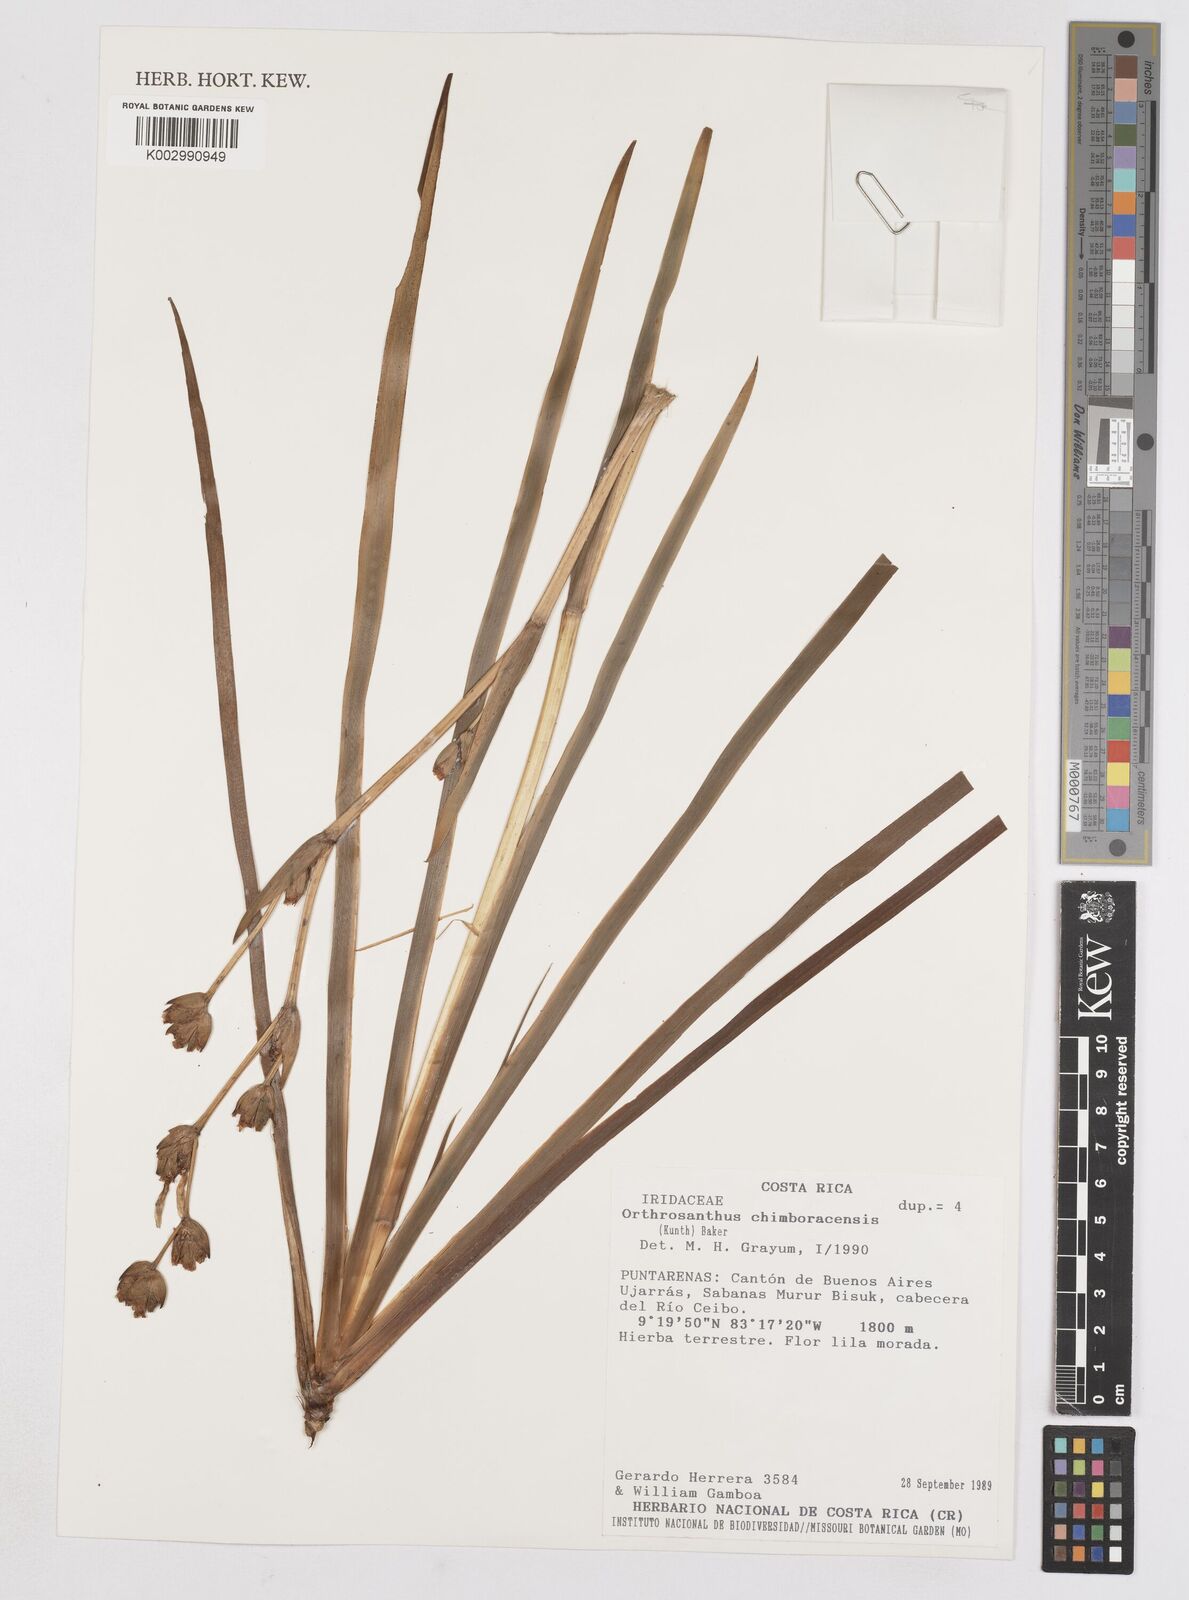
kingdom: Plantae
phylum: Tracheophyta
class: Liliopsida
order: Asparagales
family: Iridaceae
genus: Orthrosanthus
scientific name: Orthrosanthus chimboracensis
